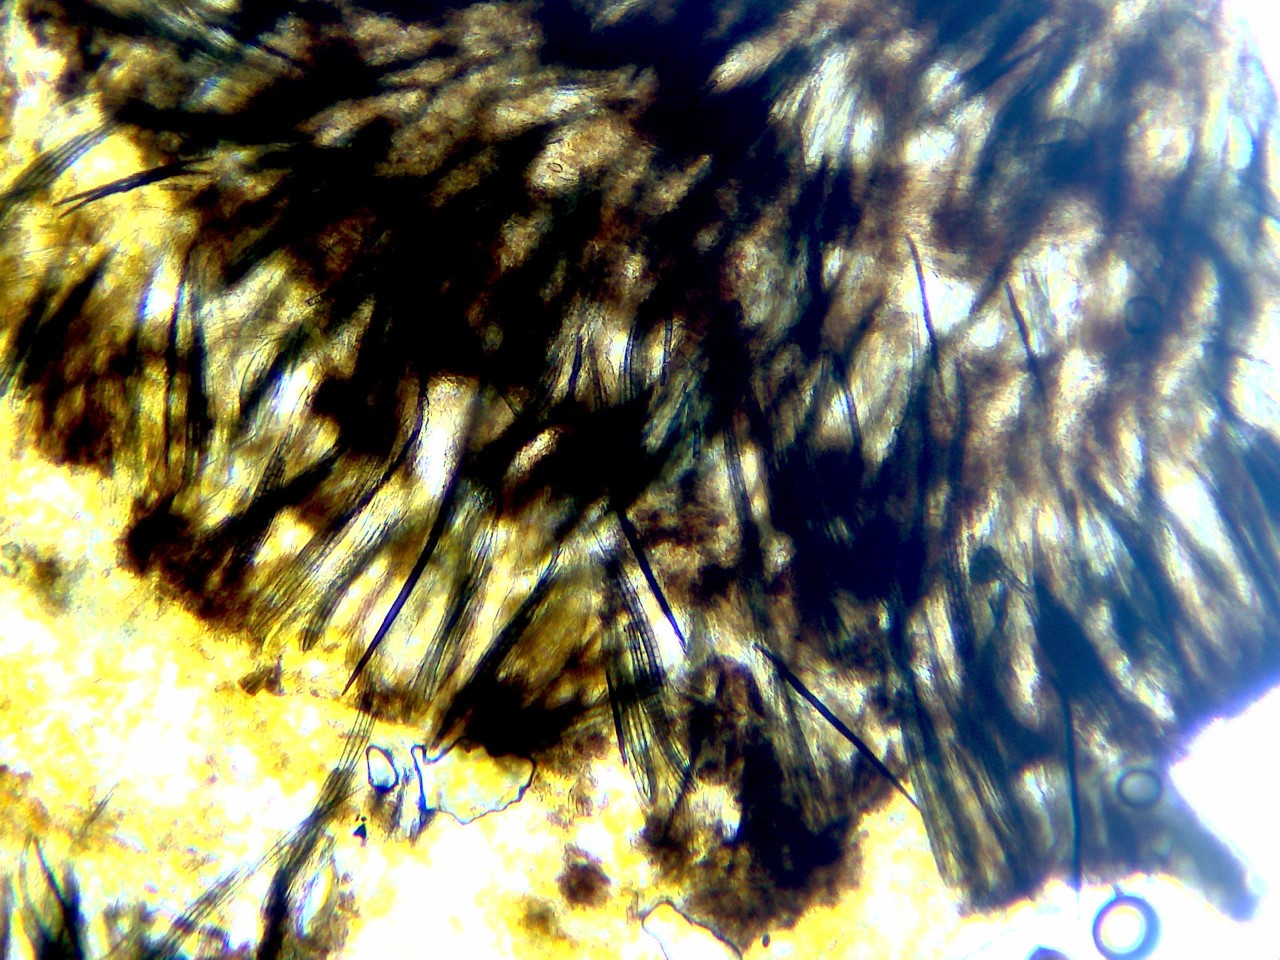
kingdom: Fungi
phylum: Ascomycota
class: Geoglossomycetes
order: Geoglossales
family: Geoglossaceae
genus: Trichoglossum
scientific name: Trichoglossum hirsutum
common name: håret jordtunge
